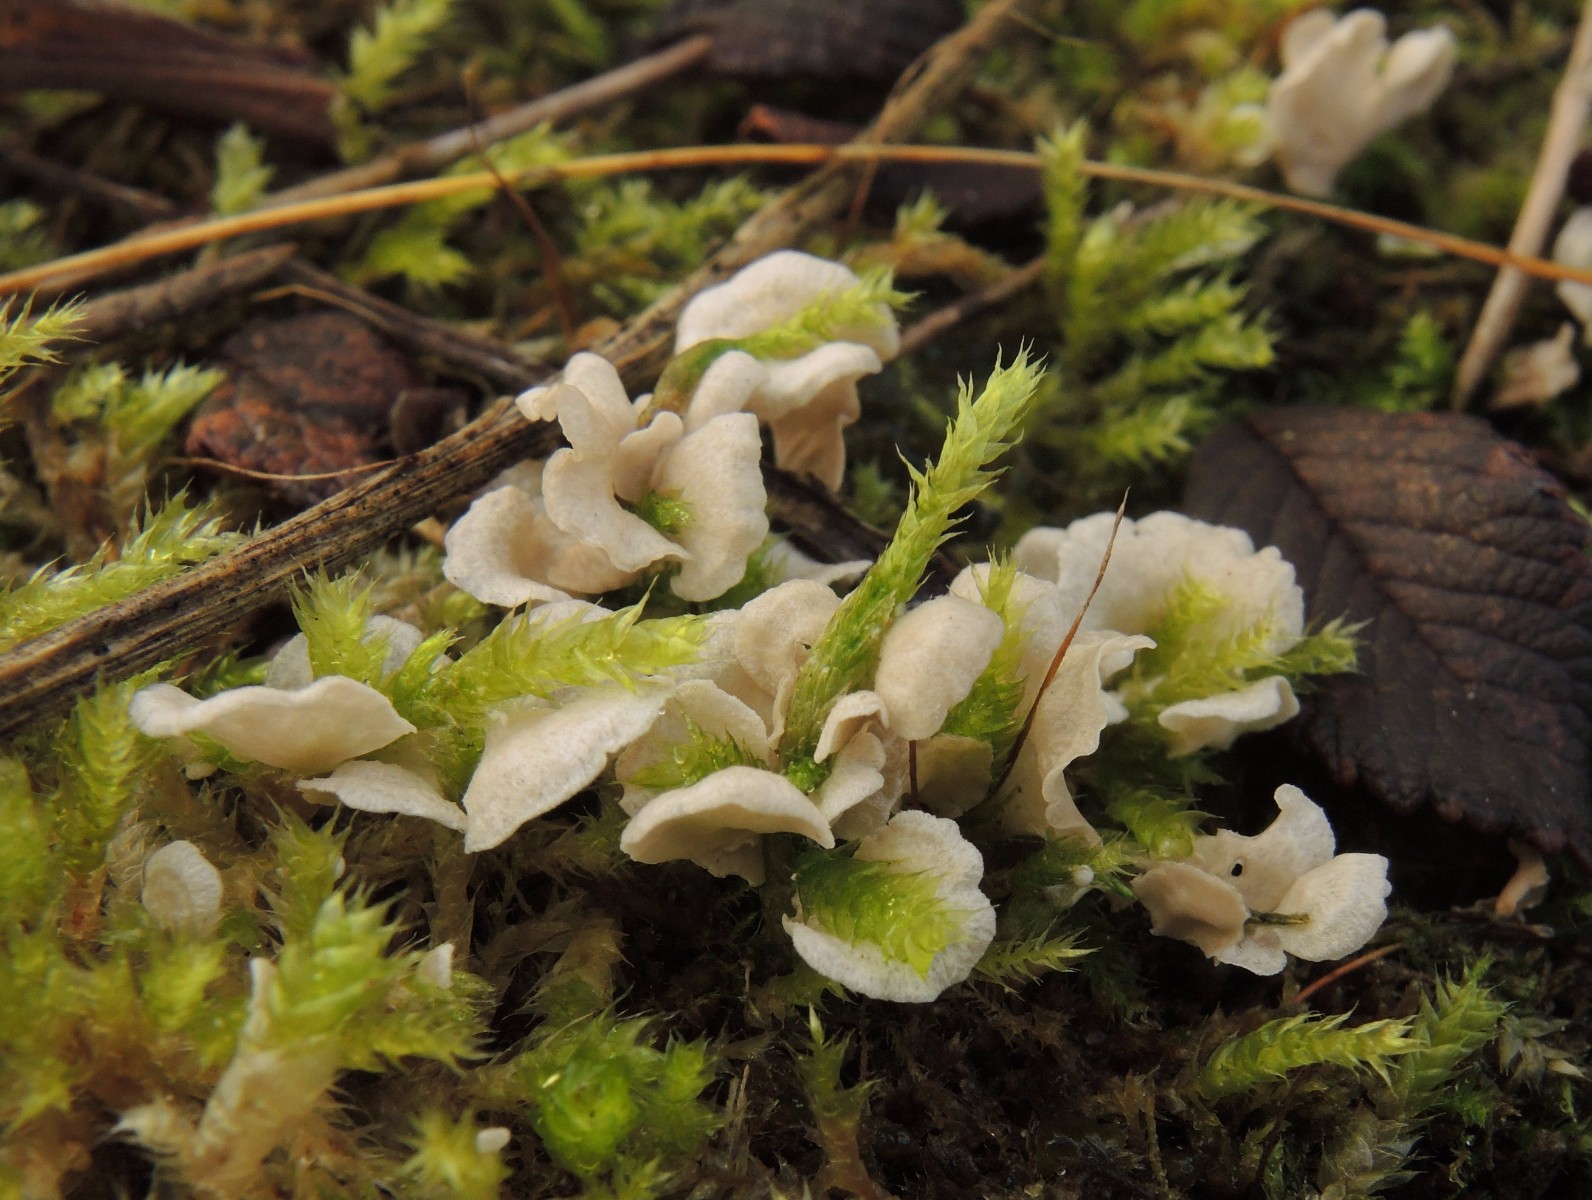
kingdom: Fungi
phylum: Basidiomycota
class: Agaricomycetes
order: Agaricales
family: Hygrophoraceae
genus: Arrhenia
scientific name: Arrhenia retiruga
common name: lille fontænehat
